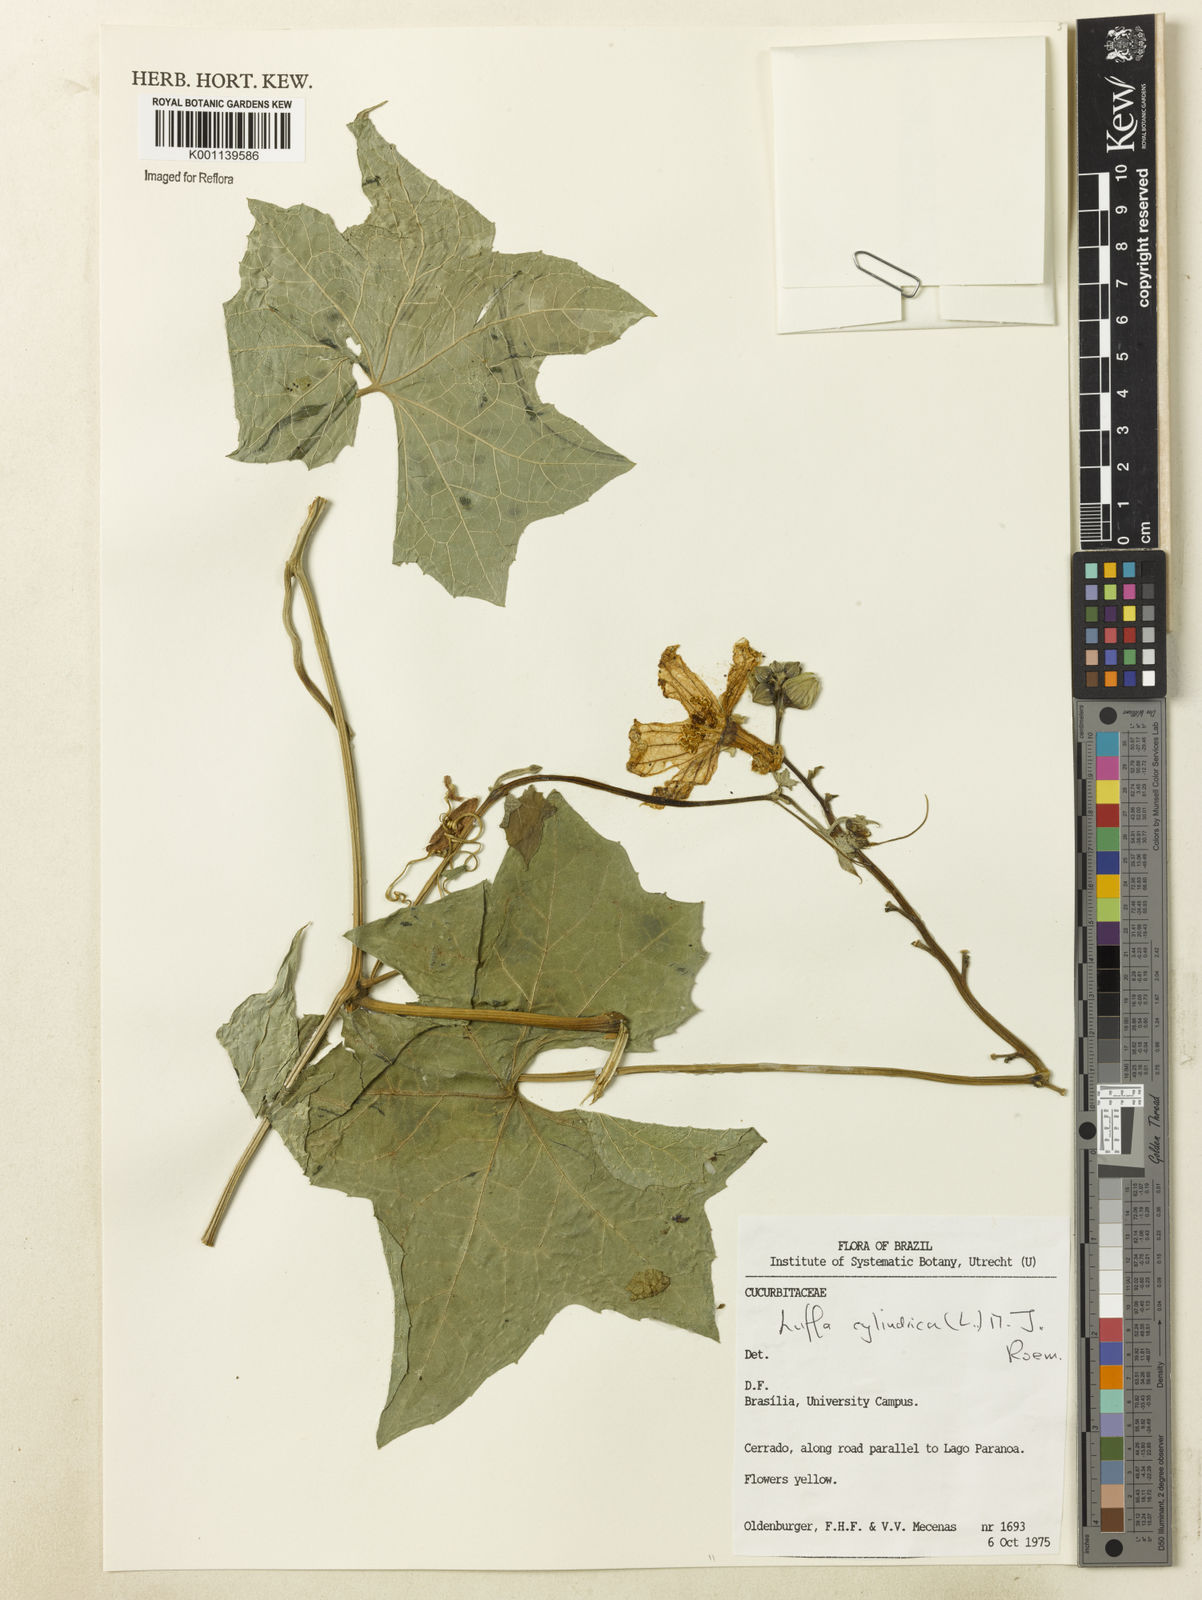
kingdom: Plantae
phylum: Tracheophyta
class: Magnoliopsida
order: Cucurbitales
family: Cucurbitaceae
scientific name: Cucurbitaceae
